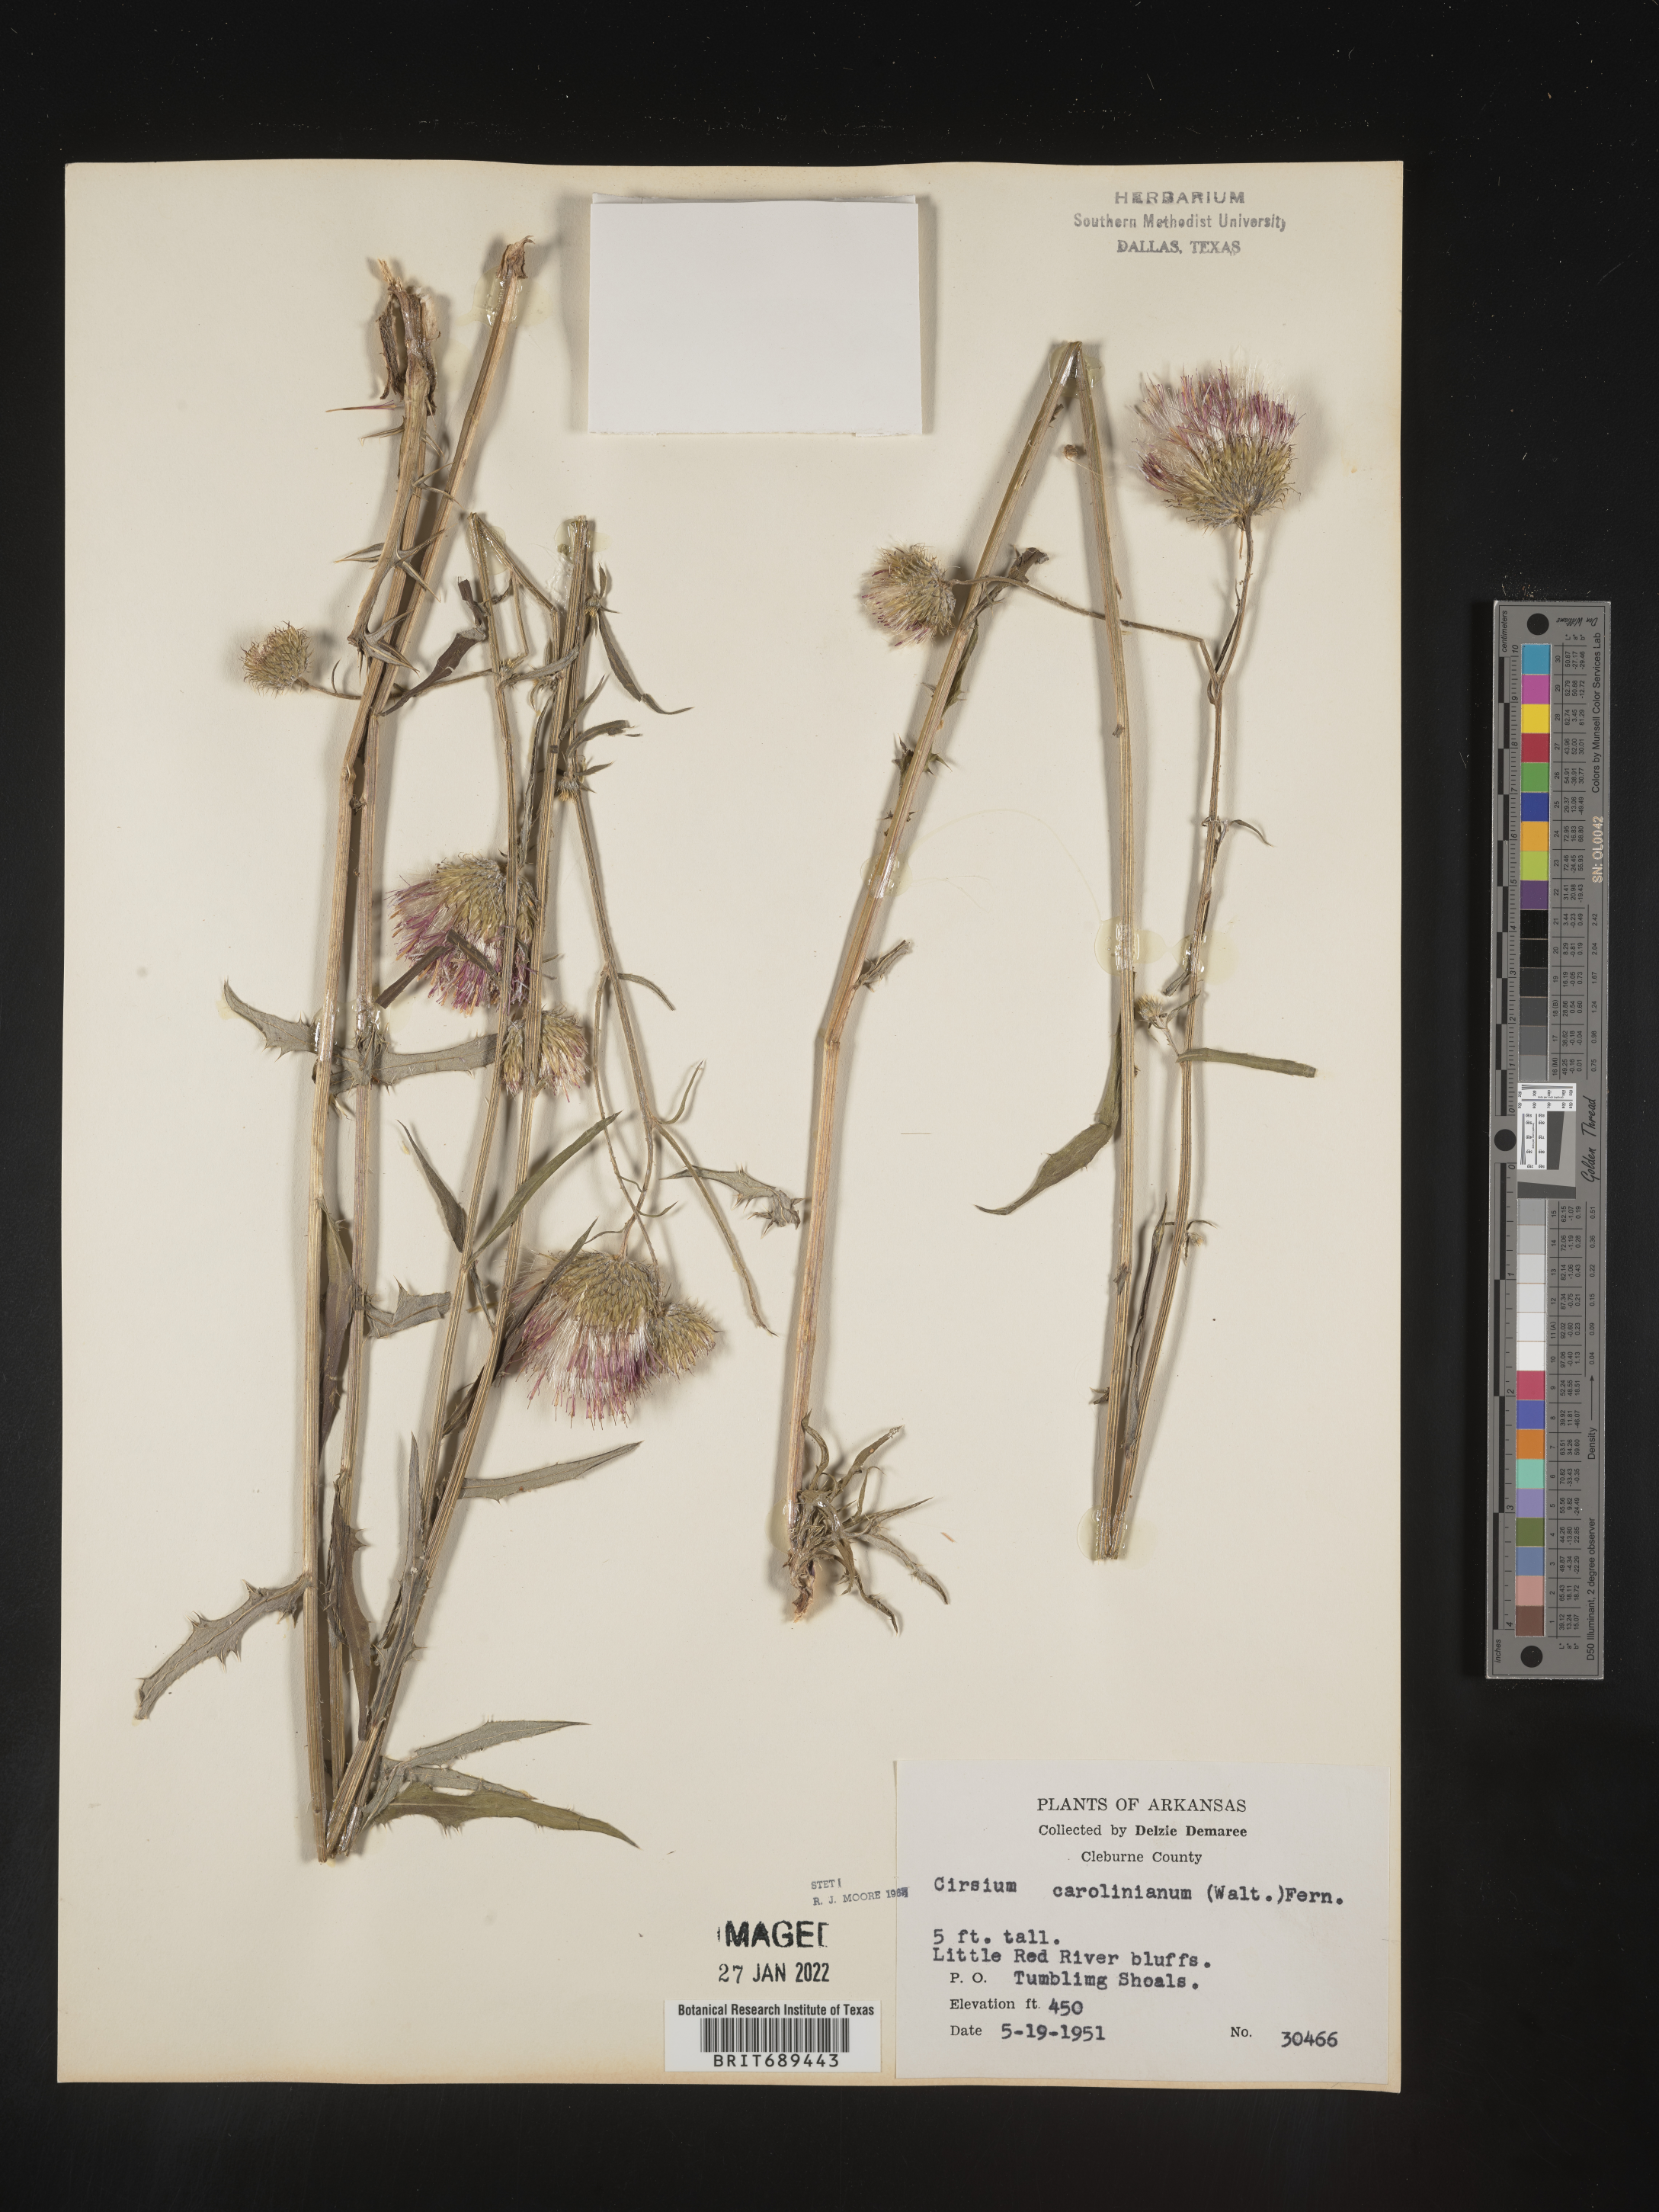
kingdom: Plantae
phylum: Tracheophyta
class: Magnoliopsida
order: Asterales
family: Asteraceae
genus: Cirsium
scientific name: Cirsium carolinianum
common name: Carolina thistle
